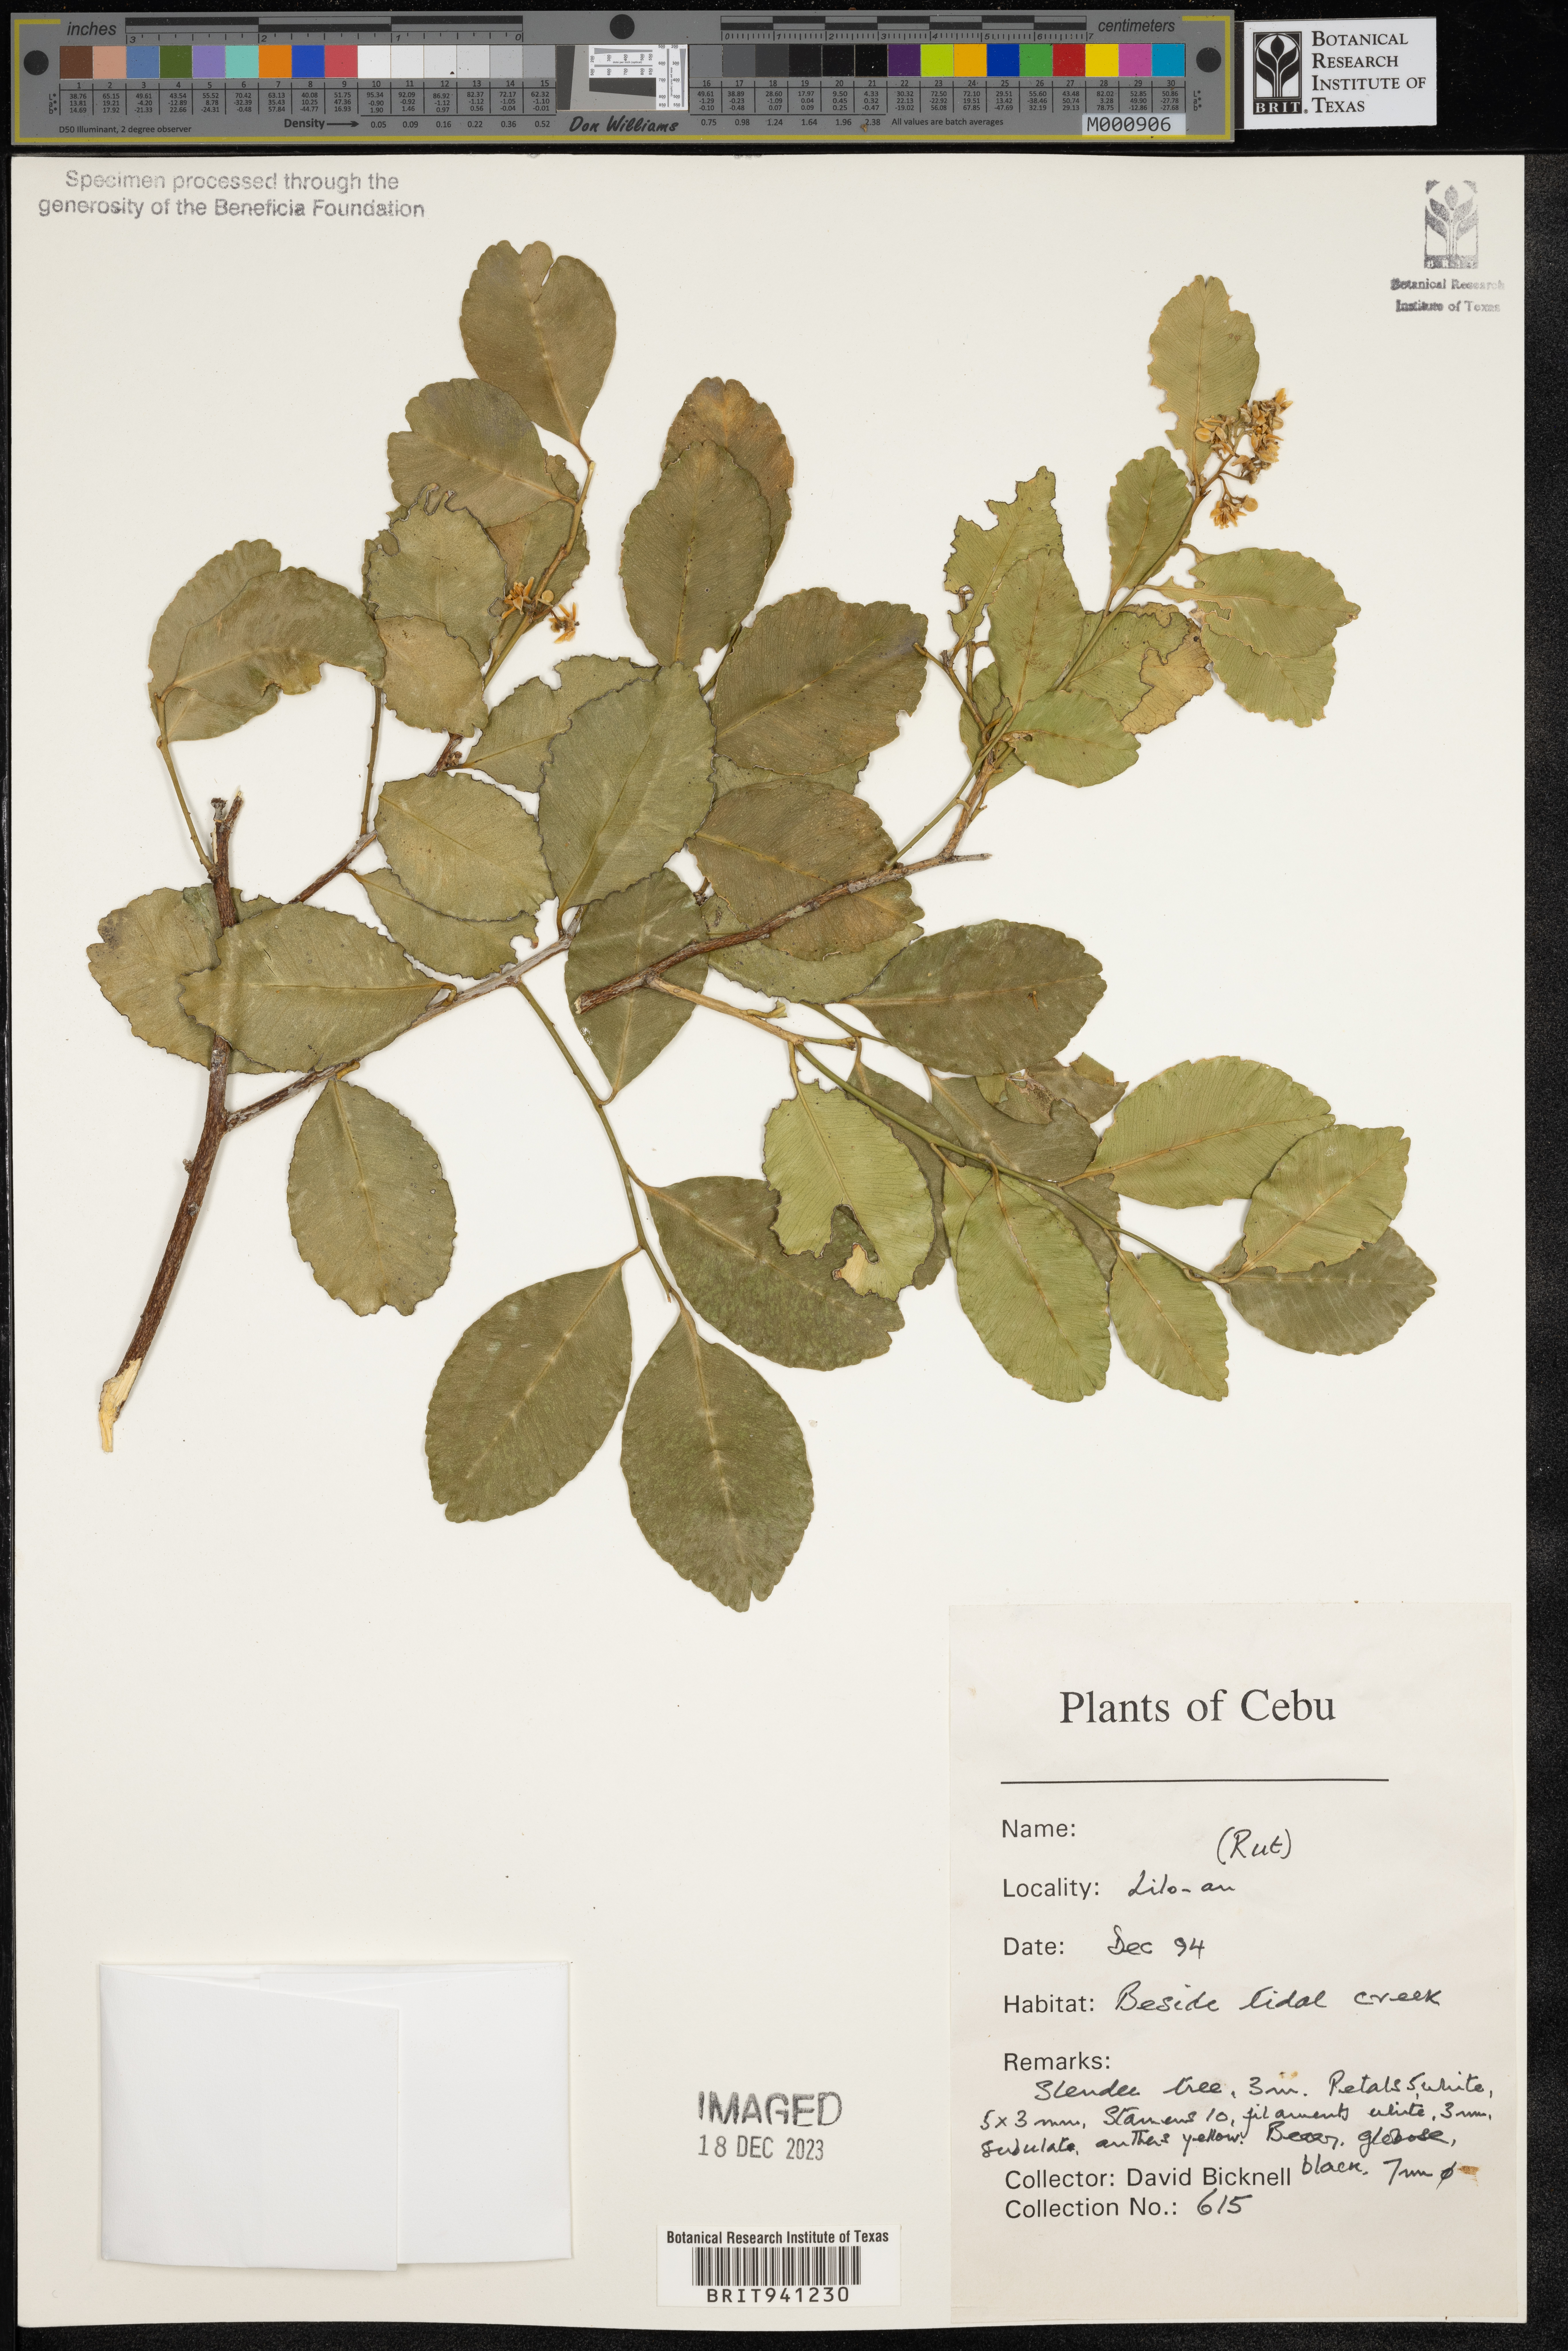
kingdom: Plantae
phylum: Tracheophyta
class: Magnoliopsida
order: Sapindales
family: Rutaceae
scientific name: Rutaceae
